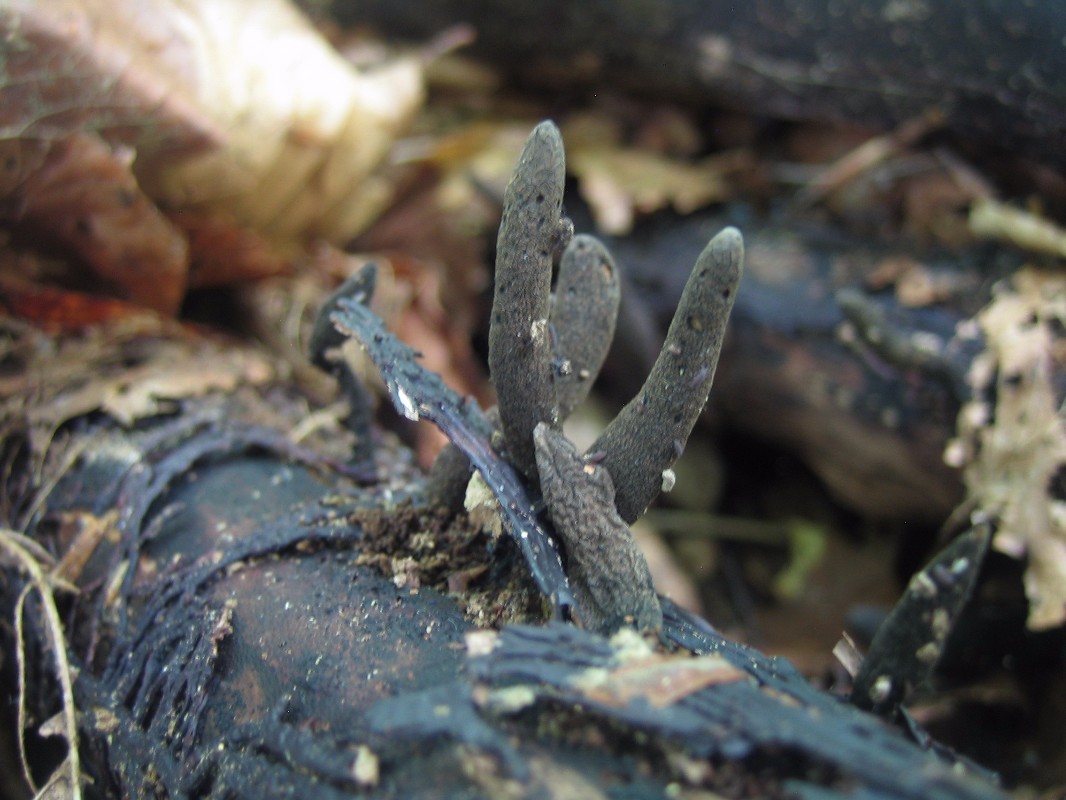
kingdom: Fungi
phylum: Ascomycota
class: Sordariomycetes
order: Xylariales
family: Xylariaceae
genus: Xylaria
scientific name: Xylaria longipes
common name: slank stødsvamp
